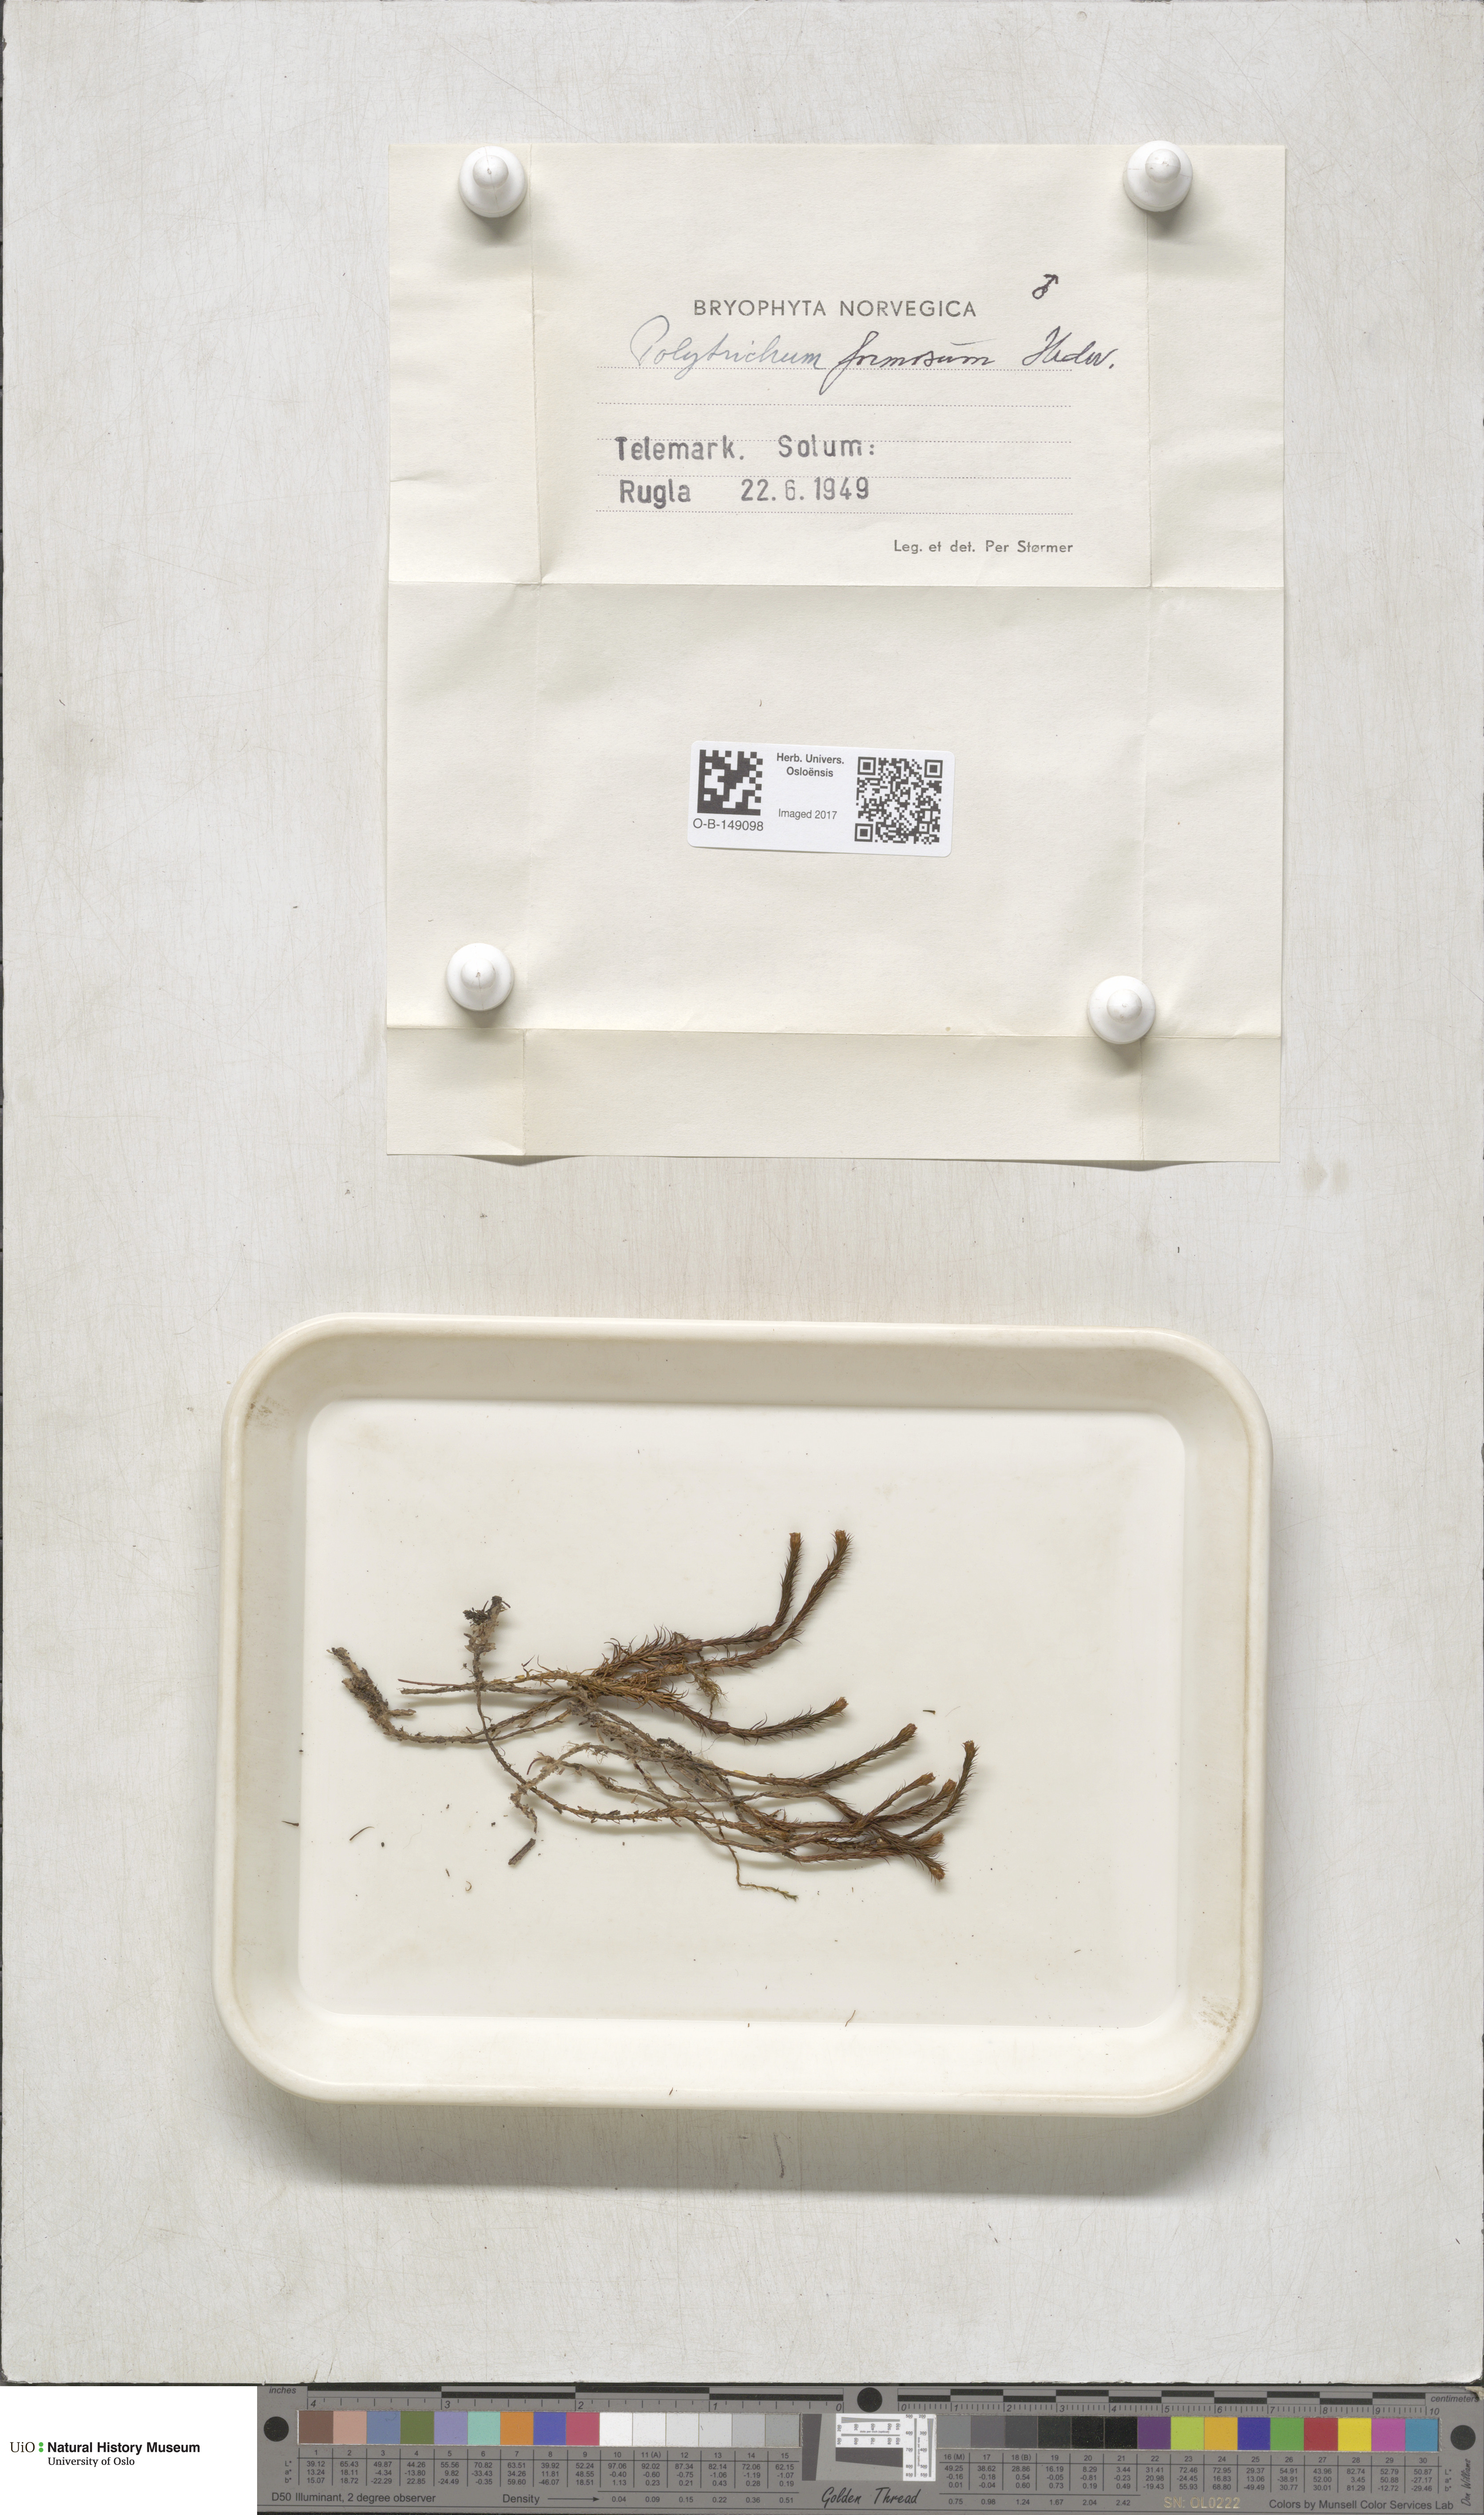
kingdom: Plantae
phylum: Bryophyta
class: Polytrichopsida
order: Polytrichales
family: Polytrichaceae
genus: Polytrichum
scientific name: Polytrichum formosum
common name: Bank haircap moss
